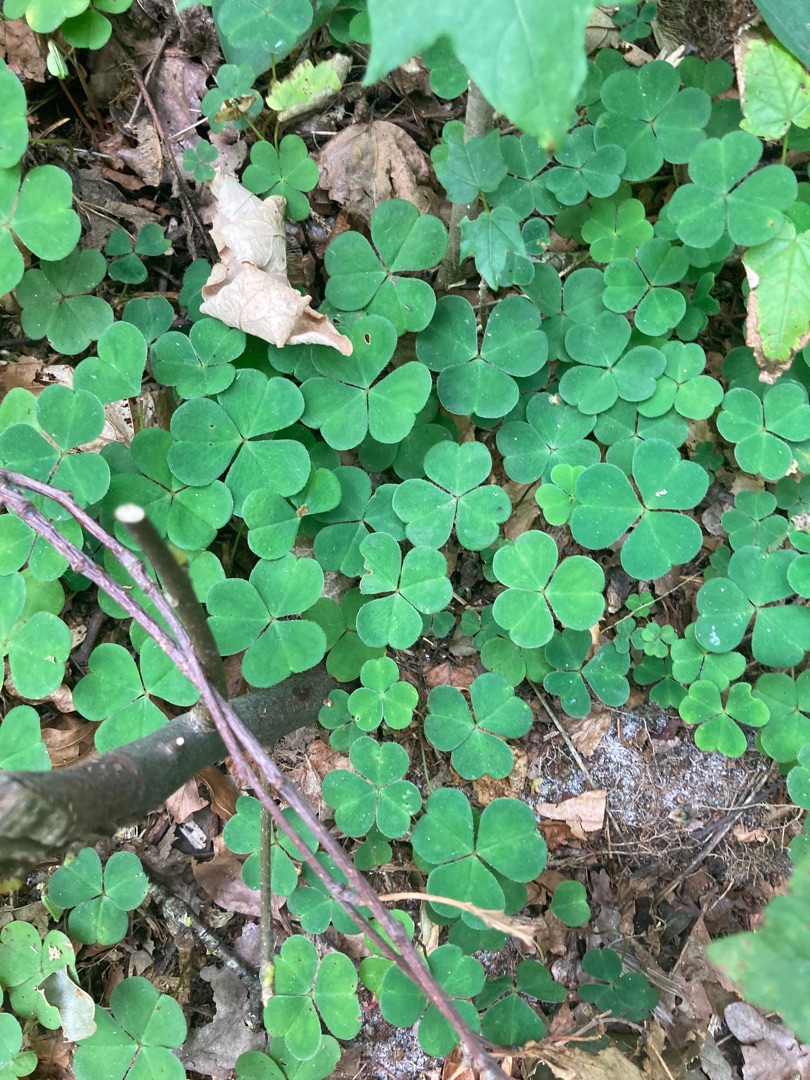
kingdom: Plantae
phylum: Tracheophyta
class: Magnoliopsida
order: Oxalidales
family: Oxalidaceae
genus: Oxalis
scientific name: Oxalis acetosella
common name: Skovsyre
